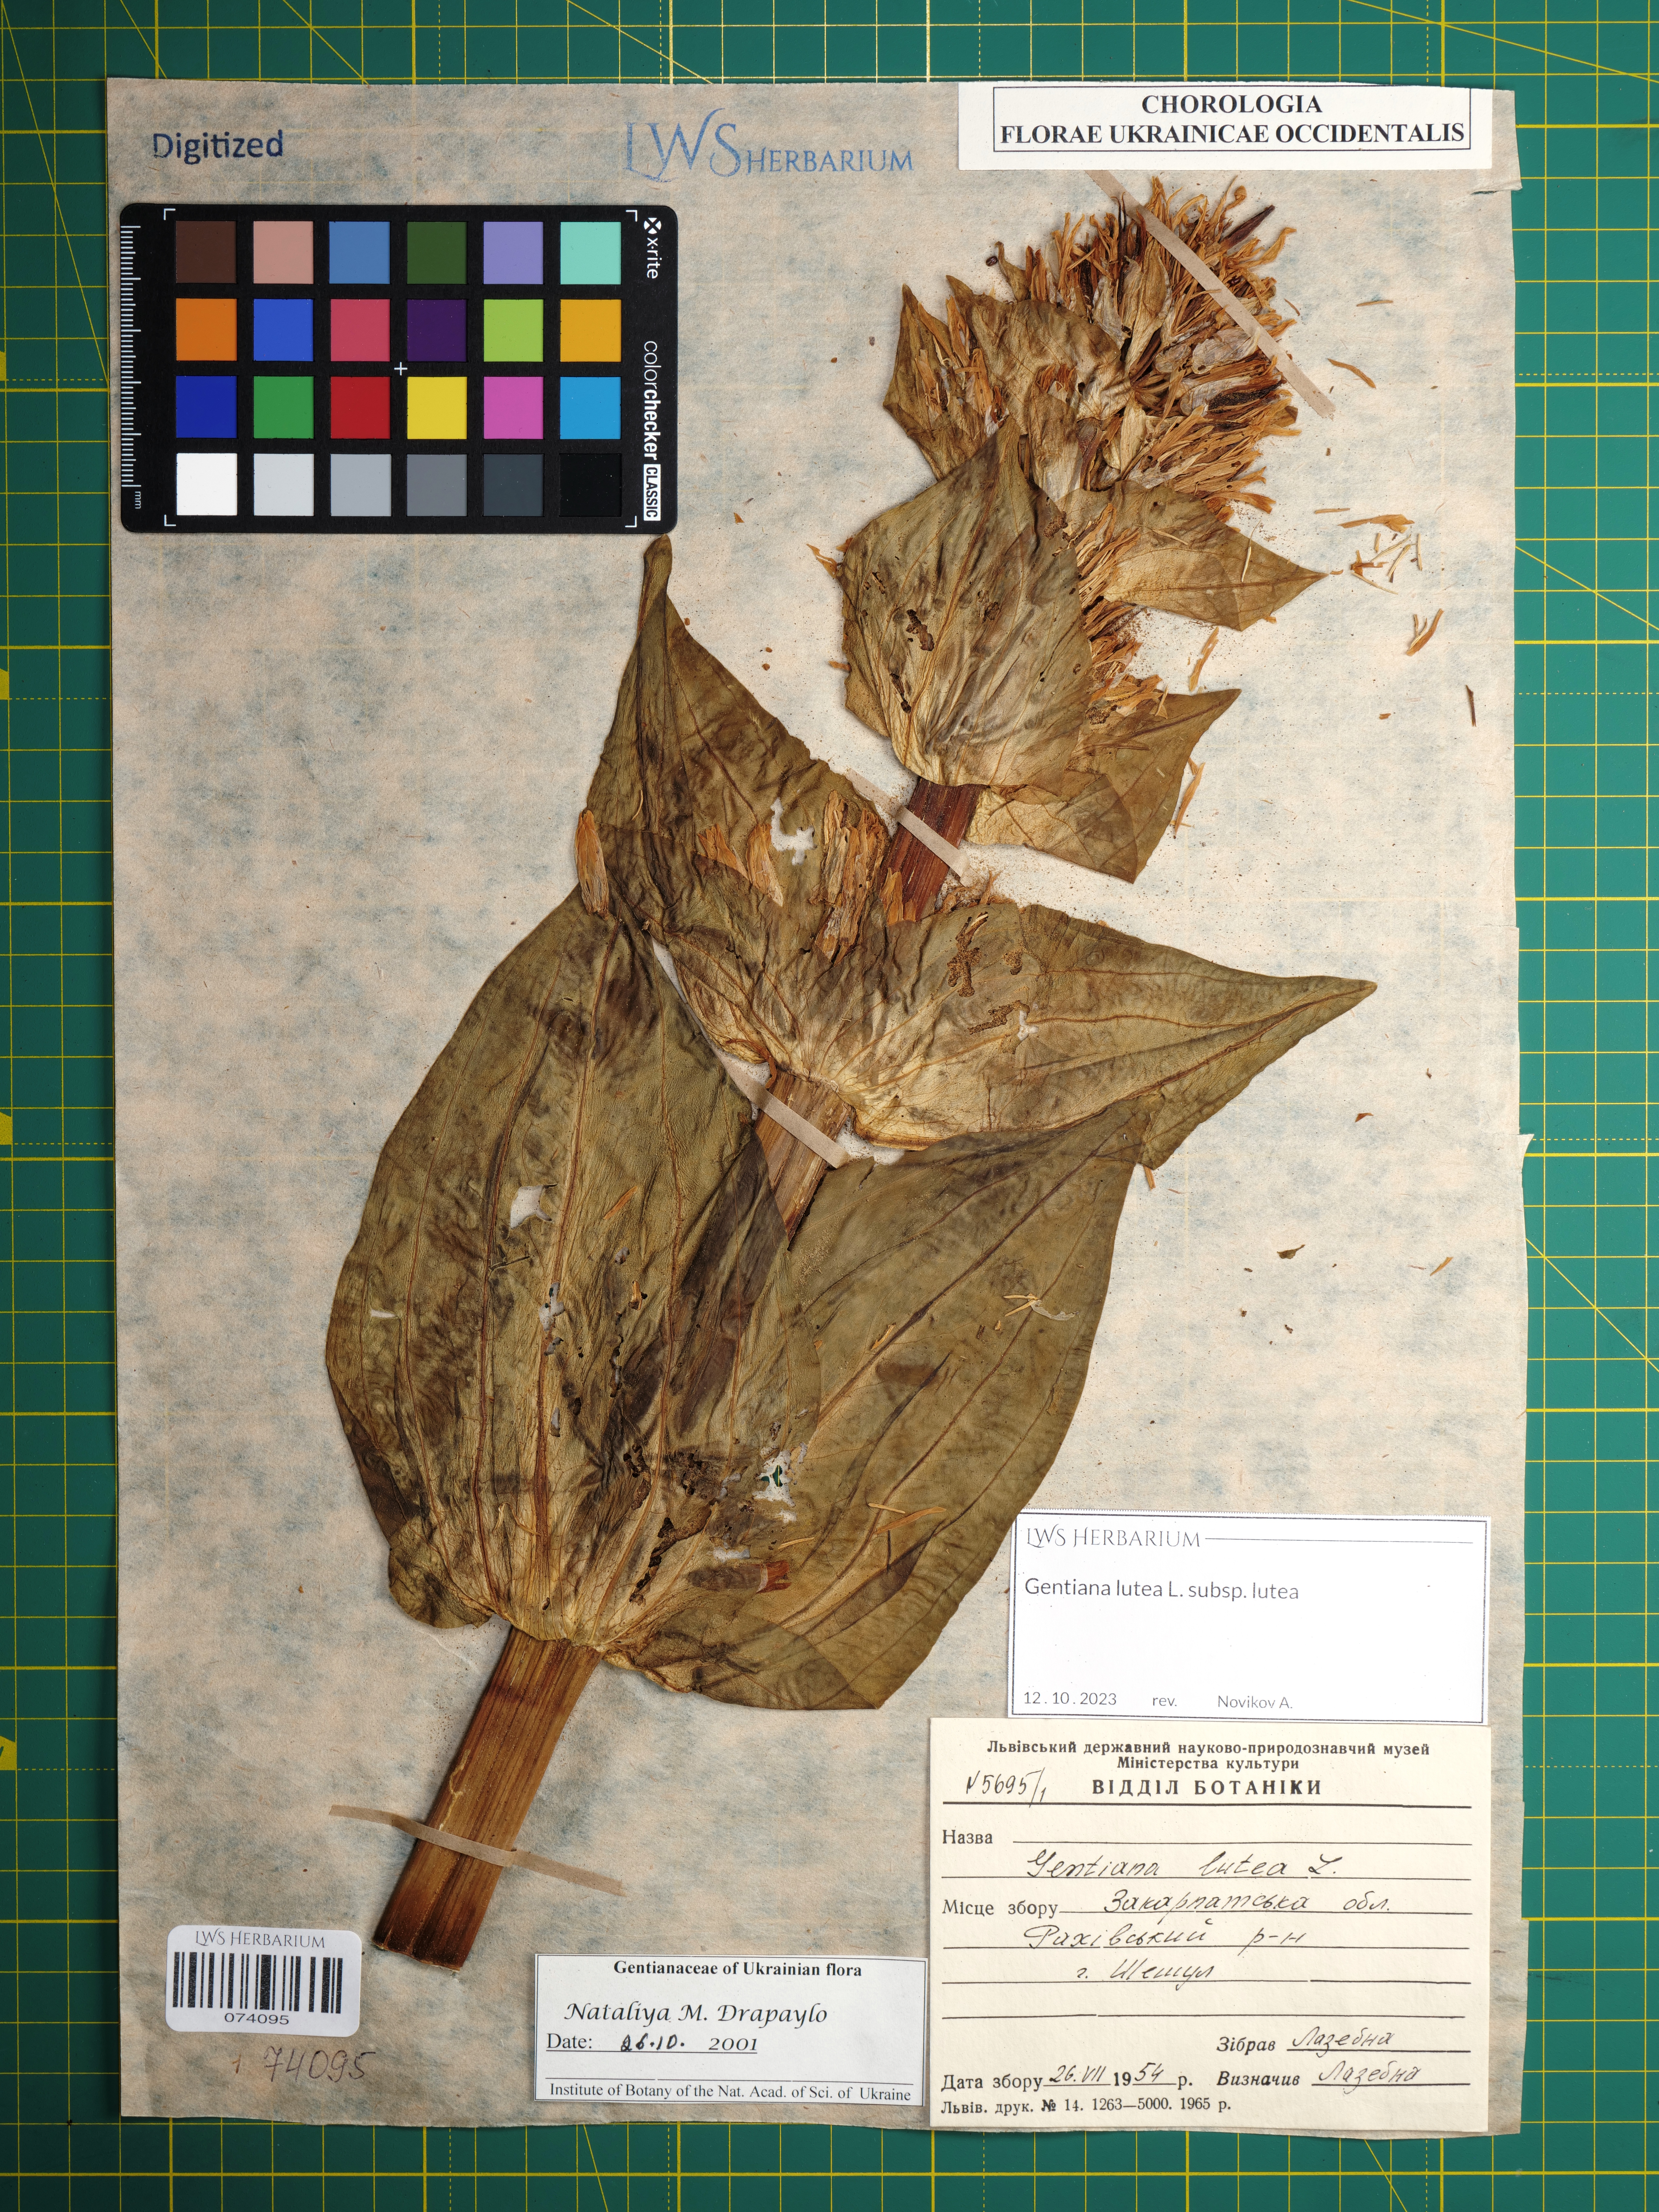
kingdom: Plantae
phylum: Tracheophyta
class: Magnoliopsida
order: Gentianales
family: Gentianaceae
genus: Gentiana
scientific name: Gentiana lutea
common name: Great yellow gentian
